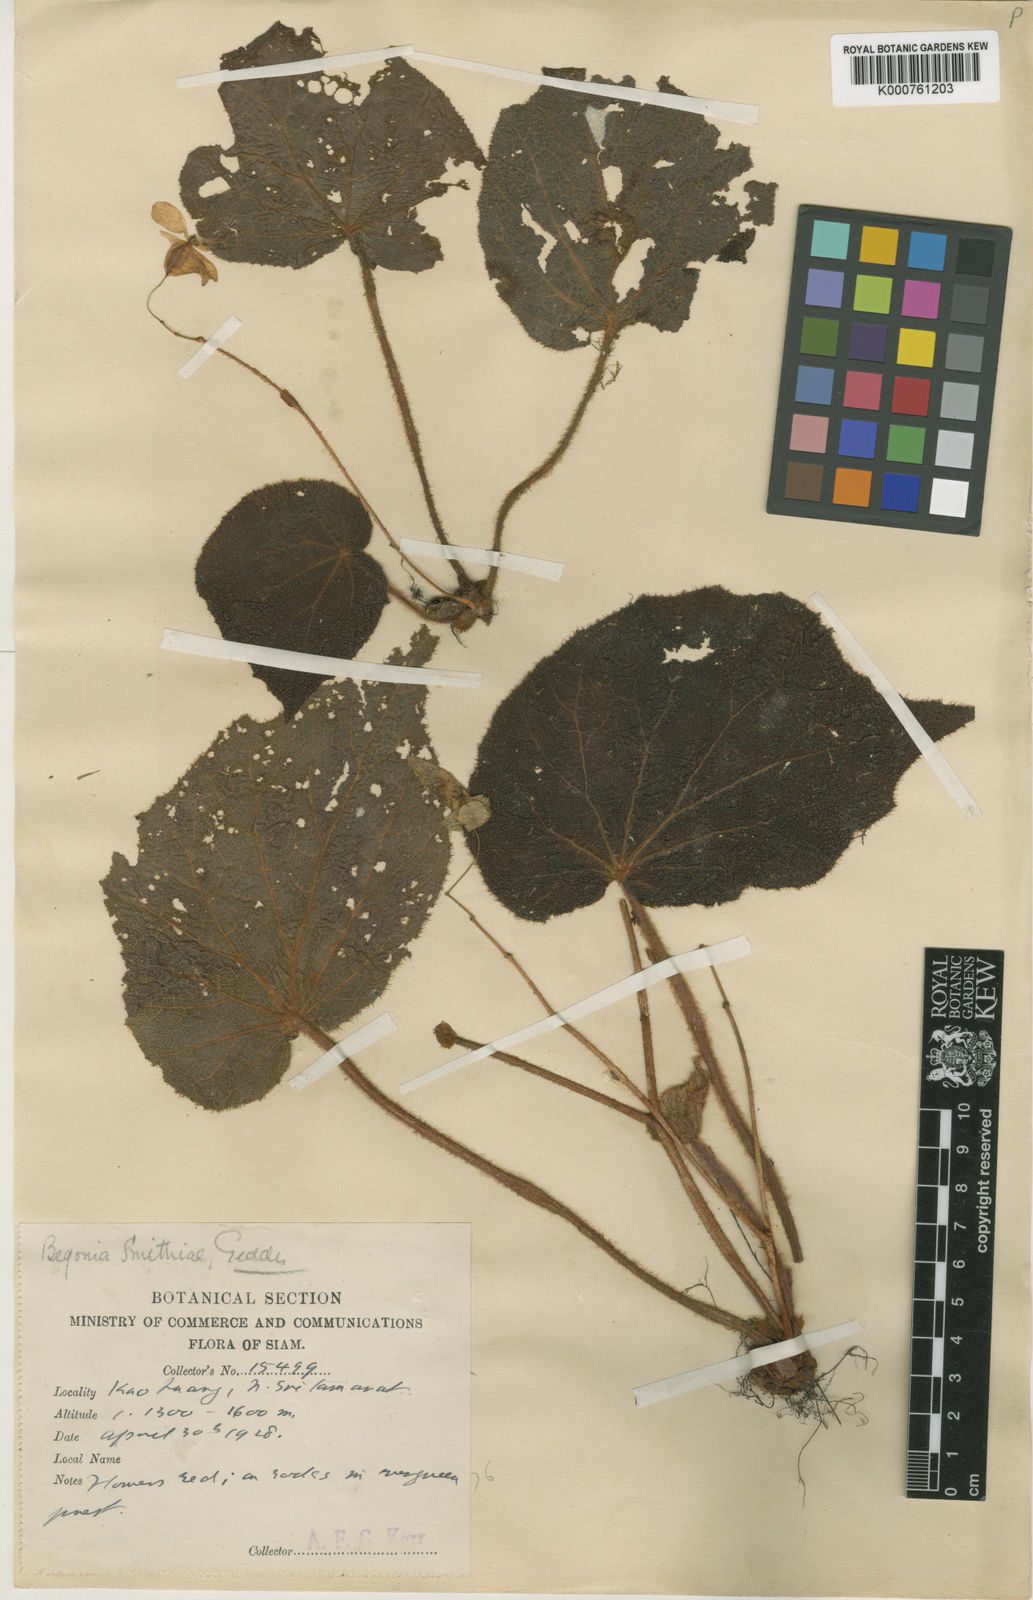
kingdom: Plantae
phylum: Tracheophyta
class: Magnoliopsida
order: Cucurbitales
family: Begoniaceae
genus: Begonia
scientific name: Begonia smithiae
